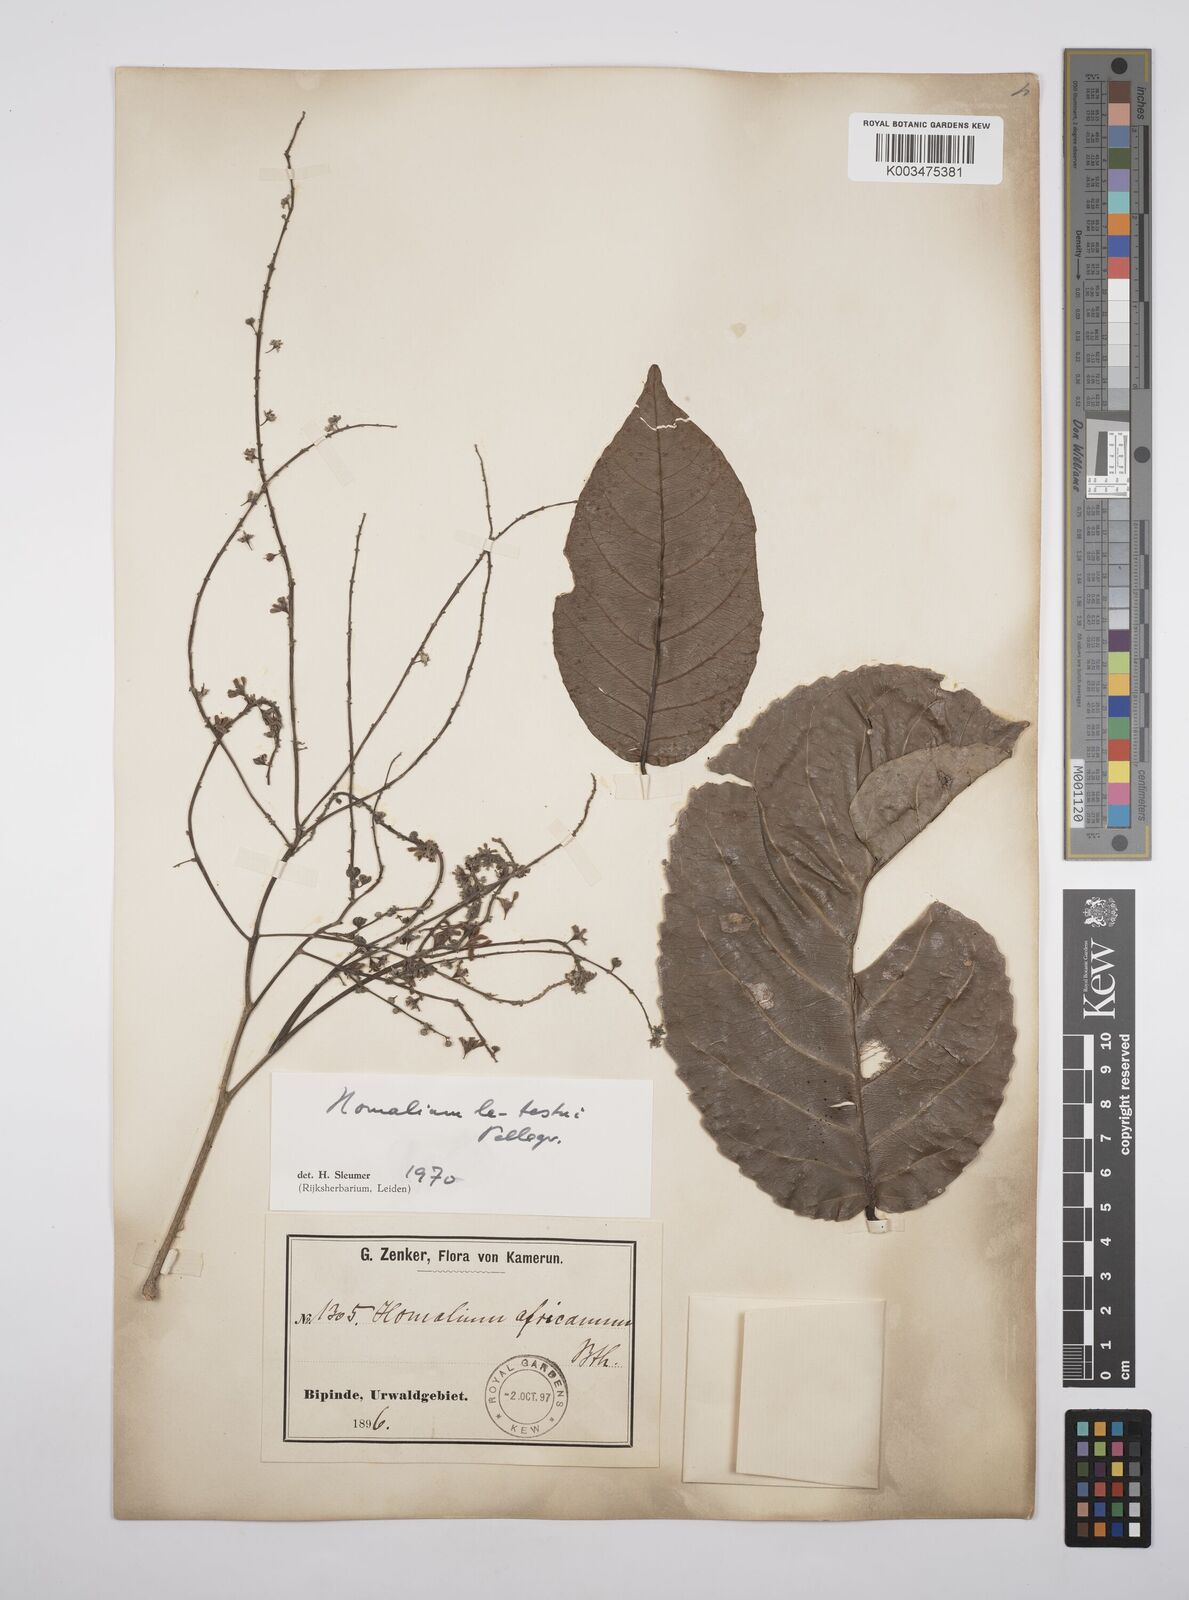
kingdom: Plantae
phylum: Tracheophyta
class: Magnoliopsida
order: Malpighiales
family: Salicaceae
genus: Homalium
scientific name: Homalium letestui
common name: African homalium
